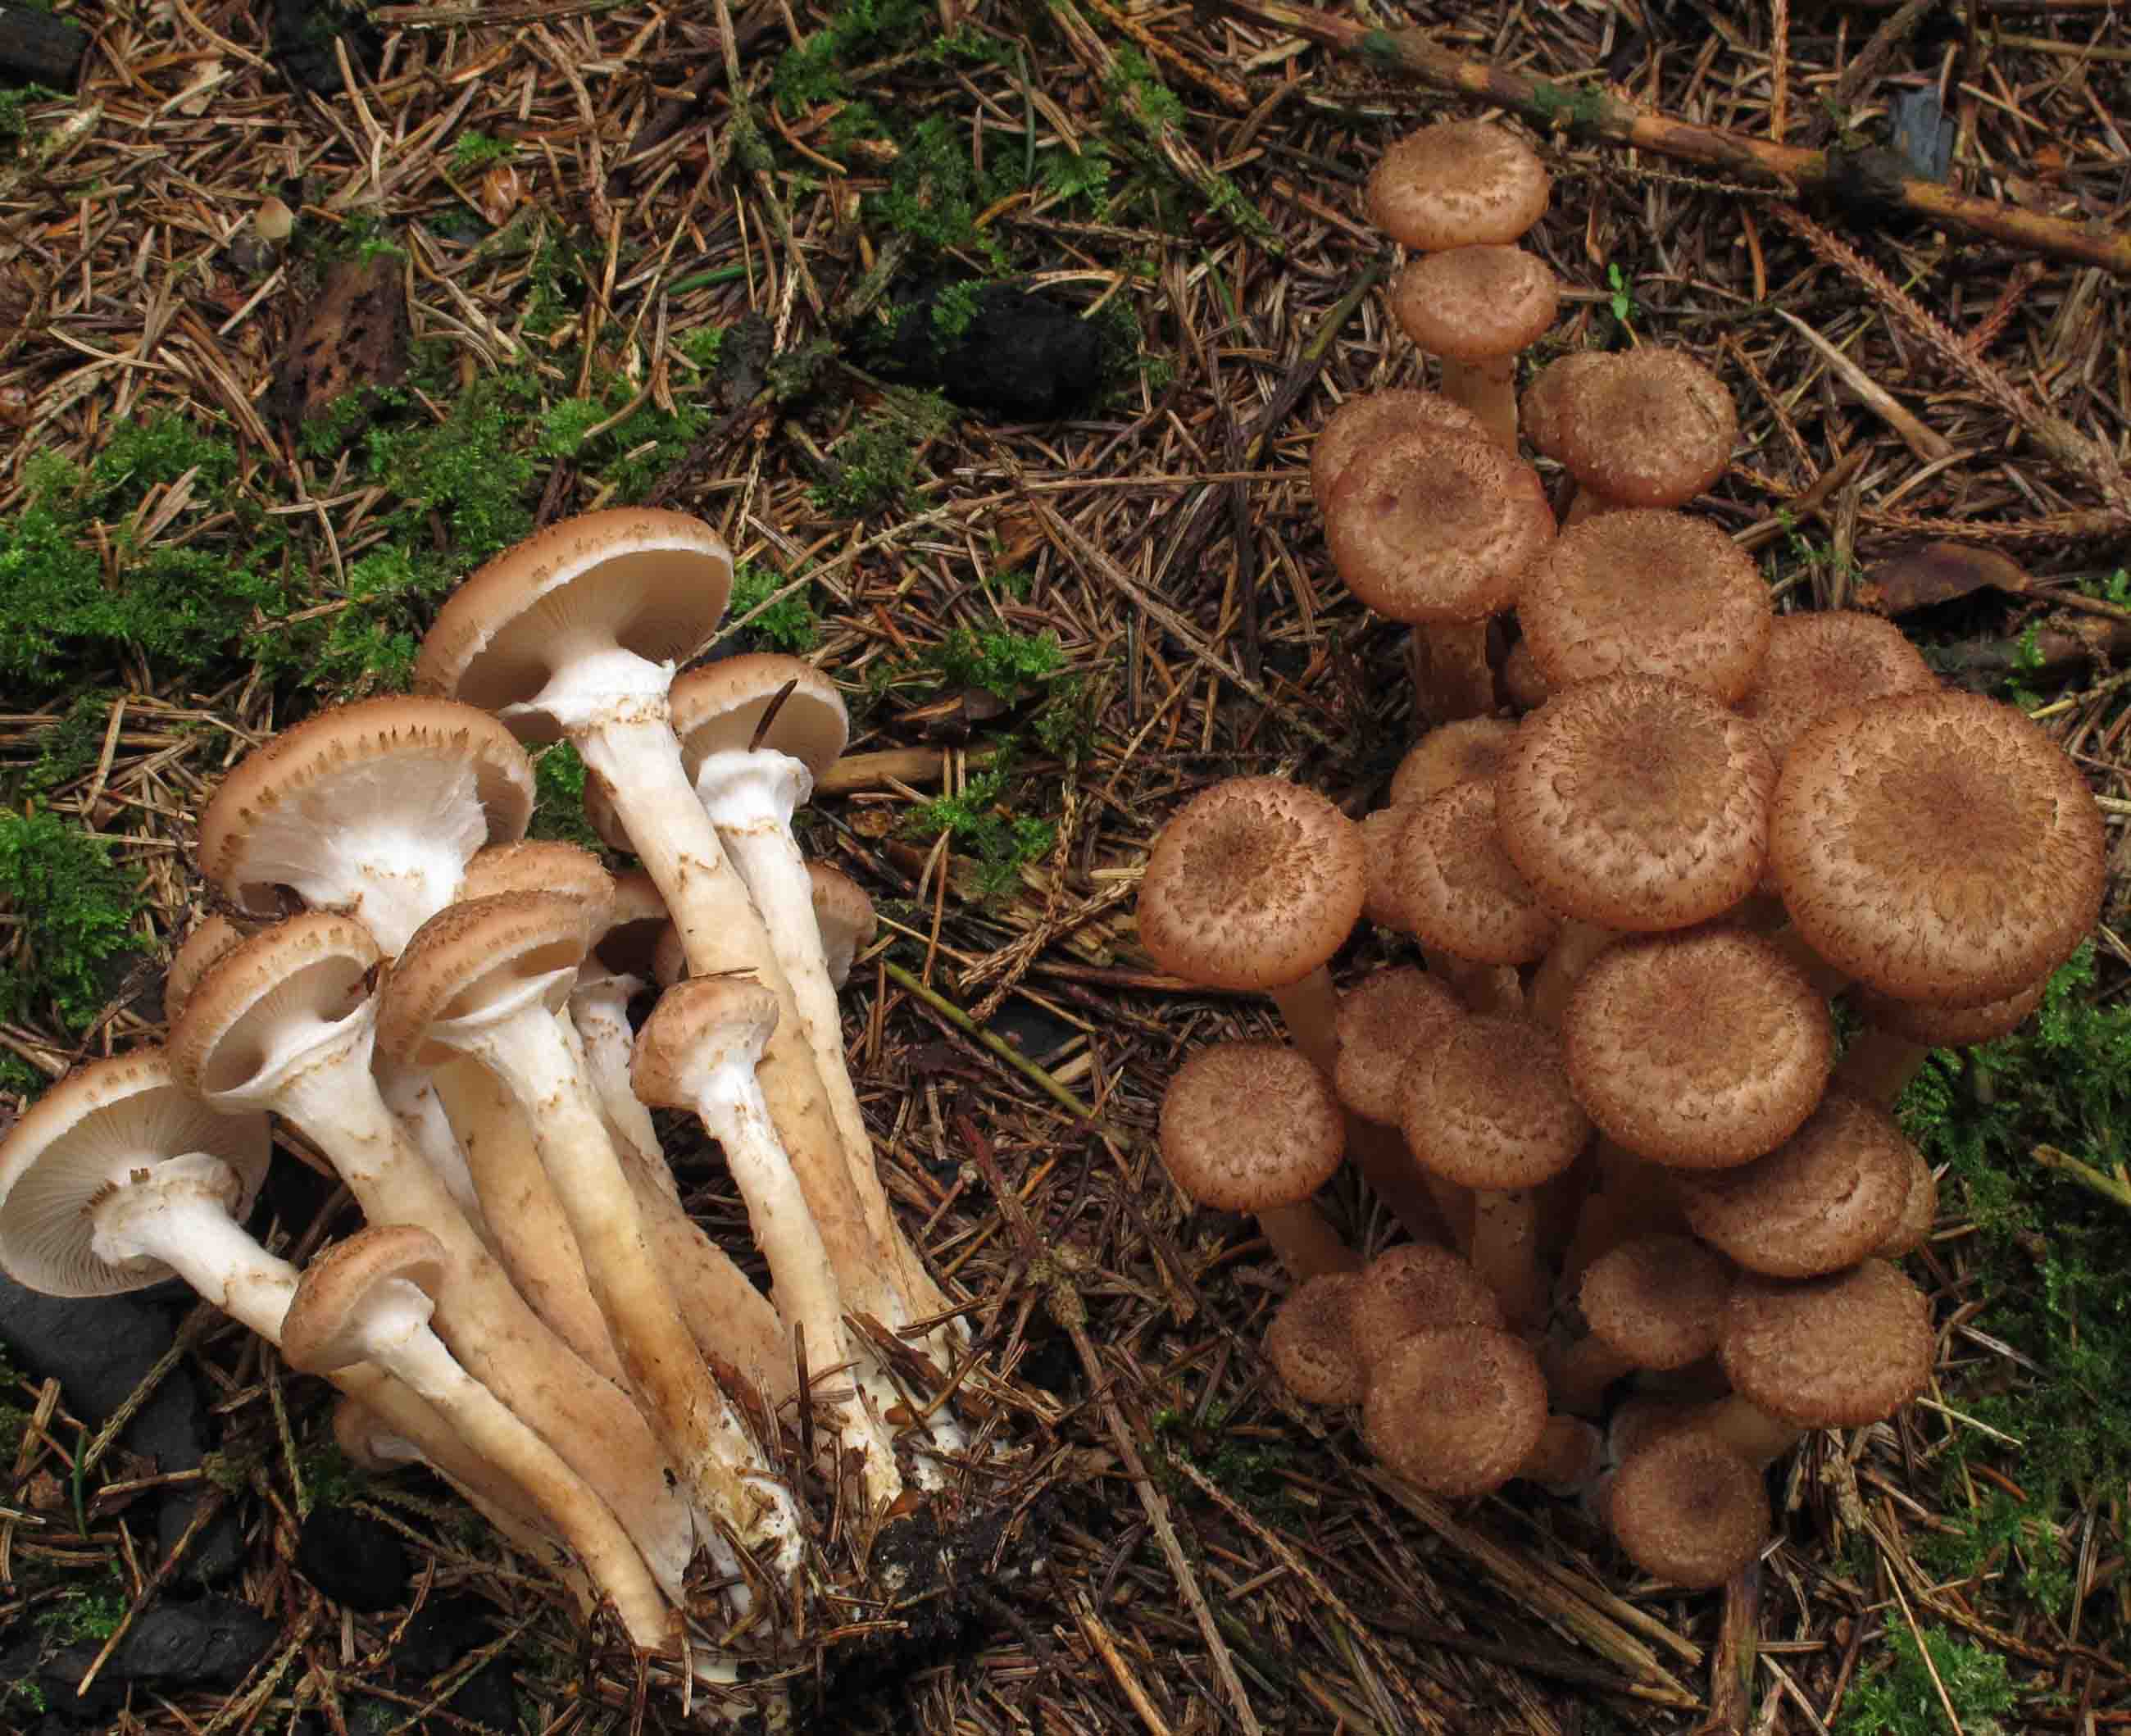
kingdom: Fungi
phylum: Basidiomycota
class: Agaricomycetes
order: Agaricales
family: Physalacriaceae
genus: Armillaria
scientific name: Armillaria ostoyae
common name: mørk honningsvamp
